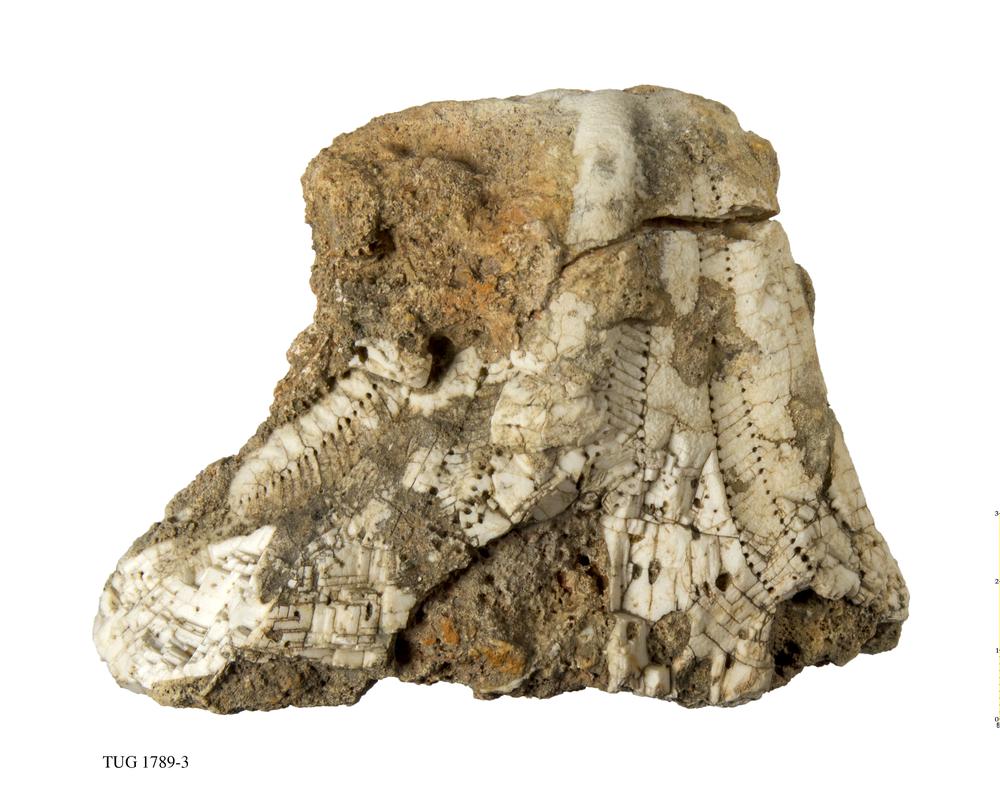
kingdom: Animalia
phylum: Echinodermata
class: Echinoidea
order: Clypeasteroida
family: Clypeasteridae
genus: Clypeaster
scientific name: Clypeaster
